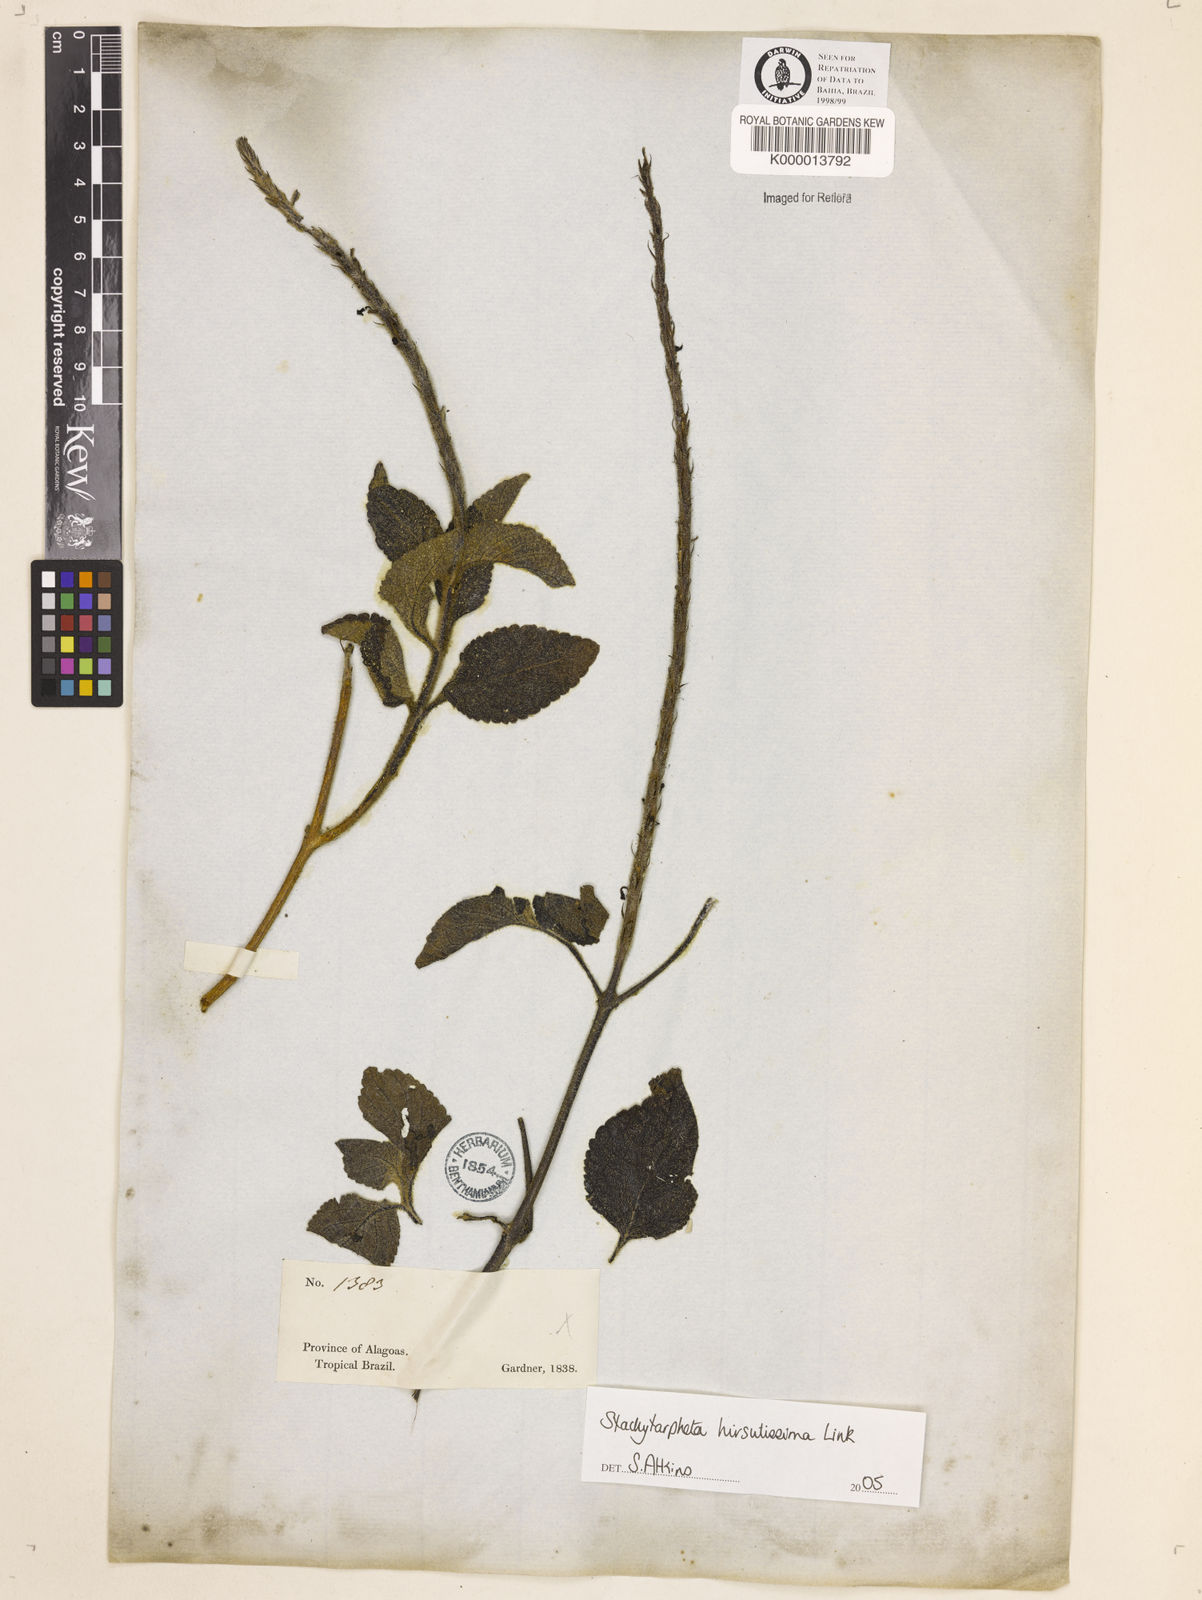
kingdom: Plantae
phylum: Tracheophyta
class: Magnoliopsida
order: Lamiales
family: Verbenaceae
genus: Stachytarpheta
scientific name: Stachytarpheta canescens
